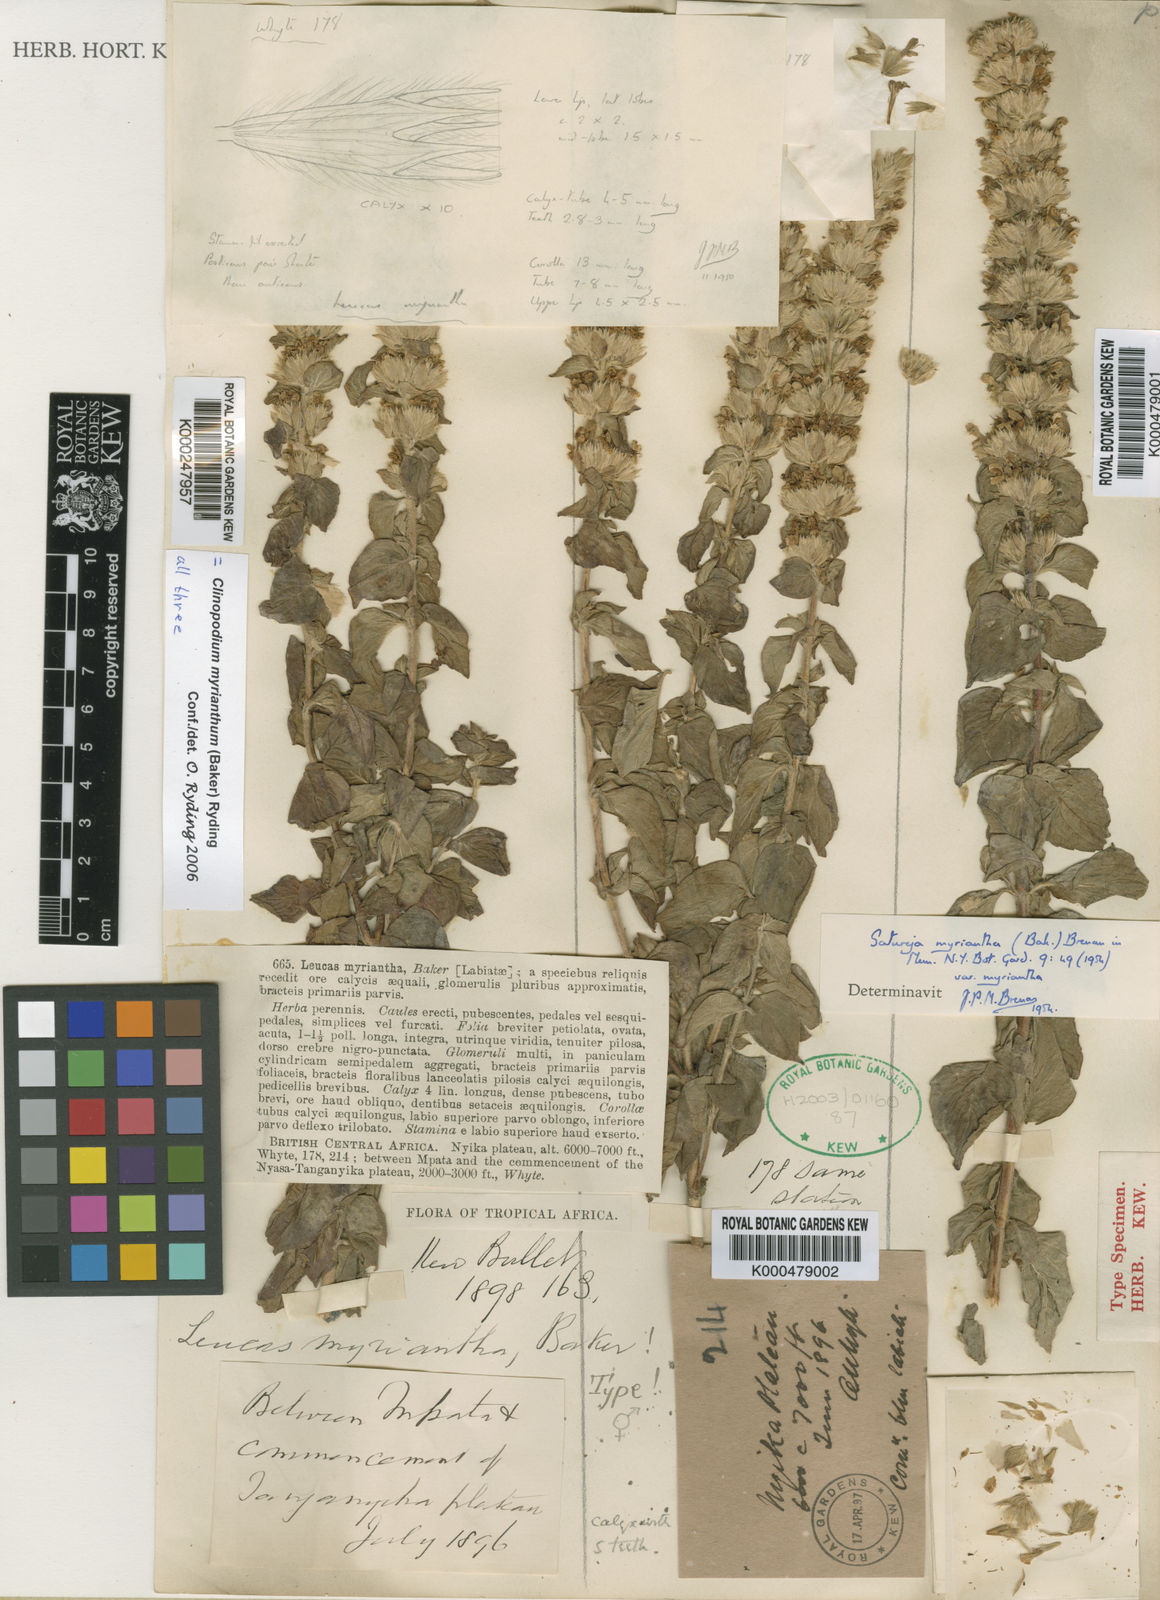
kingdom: Plantae
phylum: Tracheophyta
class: Magnoliopsida
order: Lamiales
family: Lamiaceae
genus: Clinopodium
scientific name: Clinopodium myrianthum
